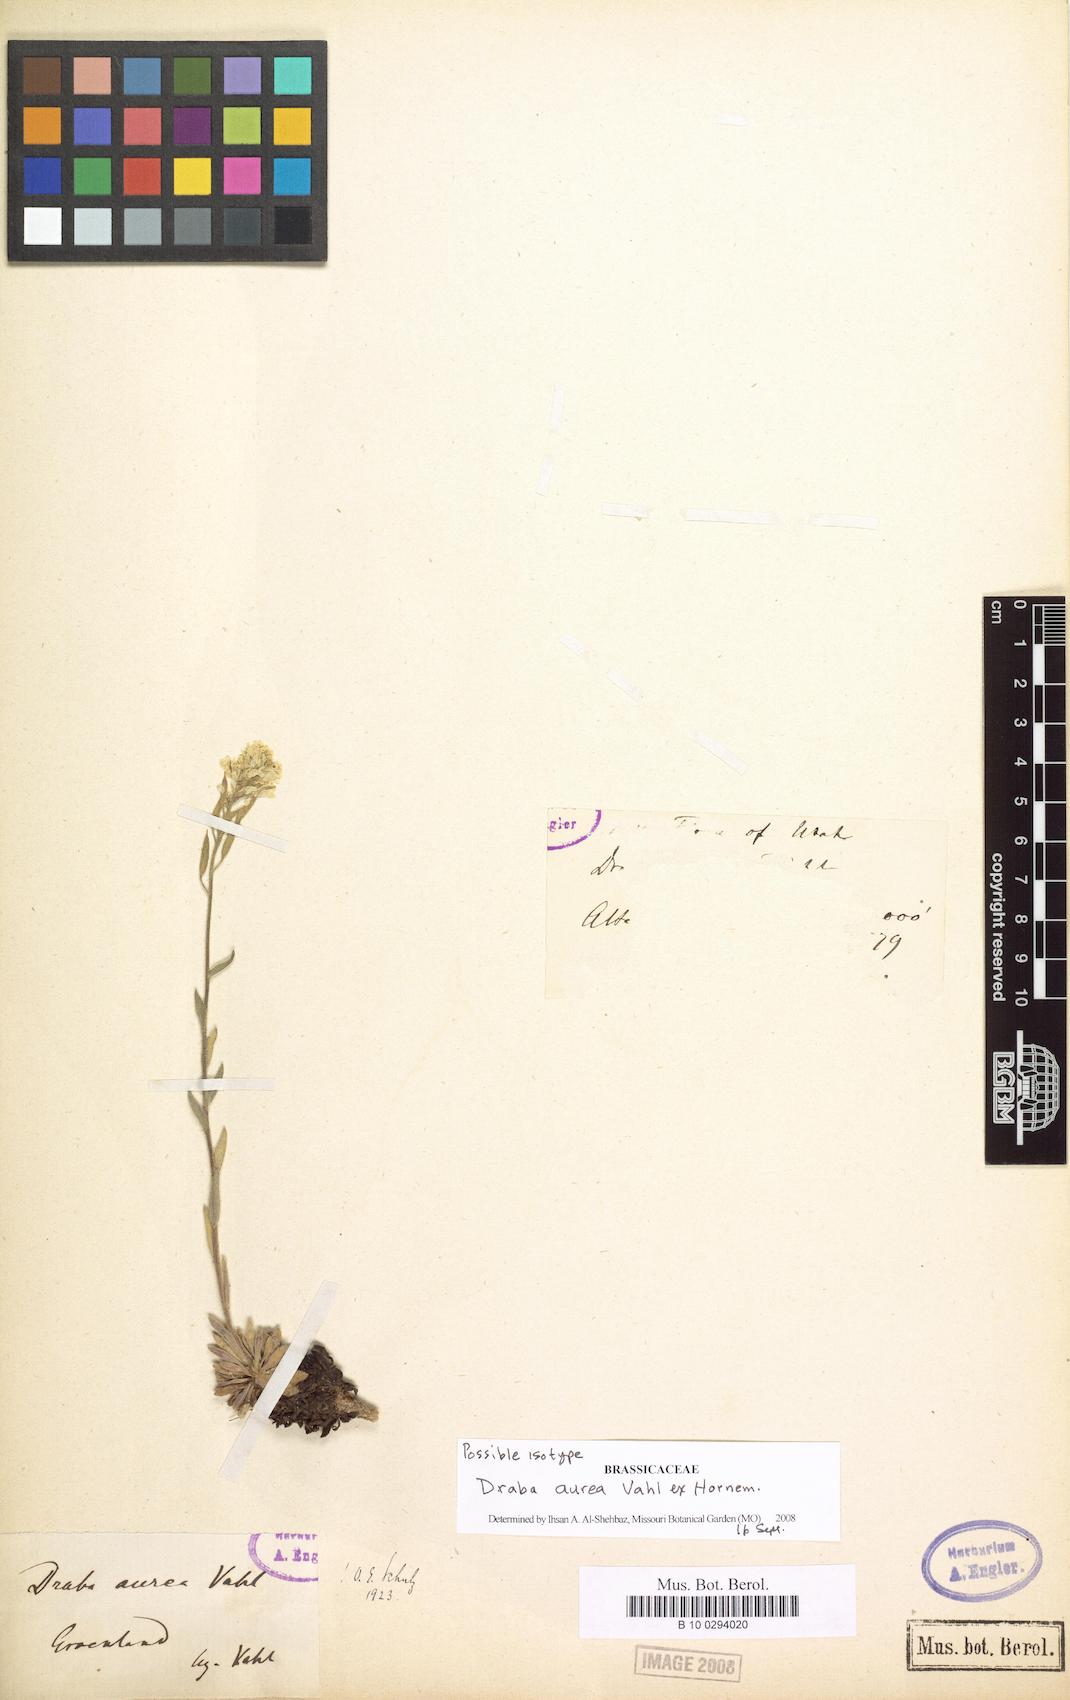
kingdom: Plantae
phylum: Tracheophyta
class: Magnoliopsida
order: Brassicales
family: Brassicaceae
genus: Draba
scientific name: Draba aurea
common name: Golden draba
